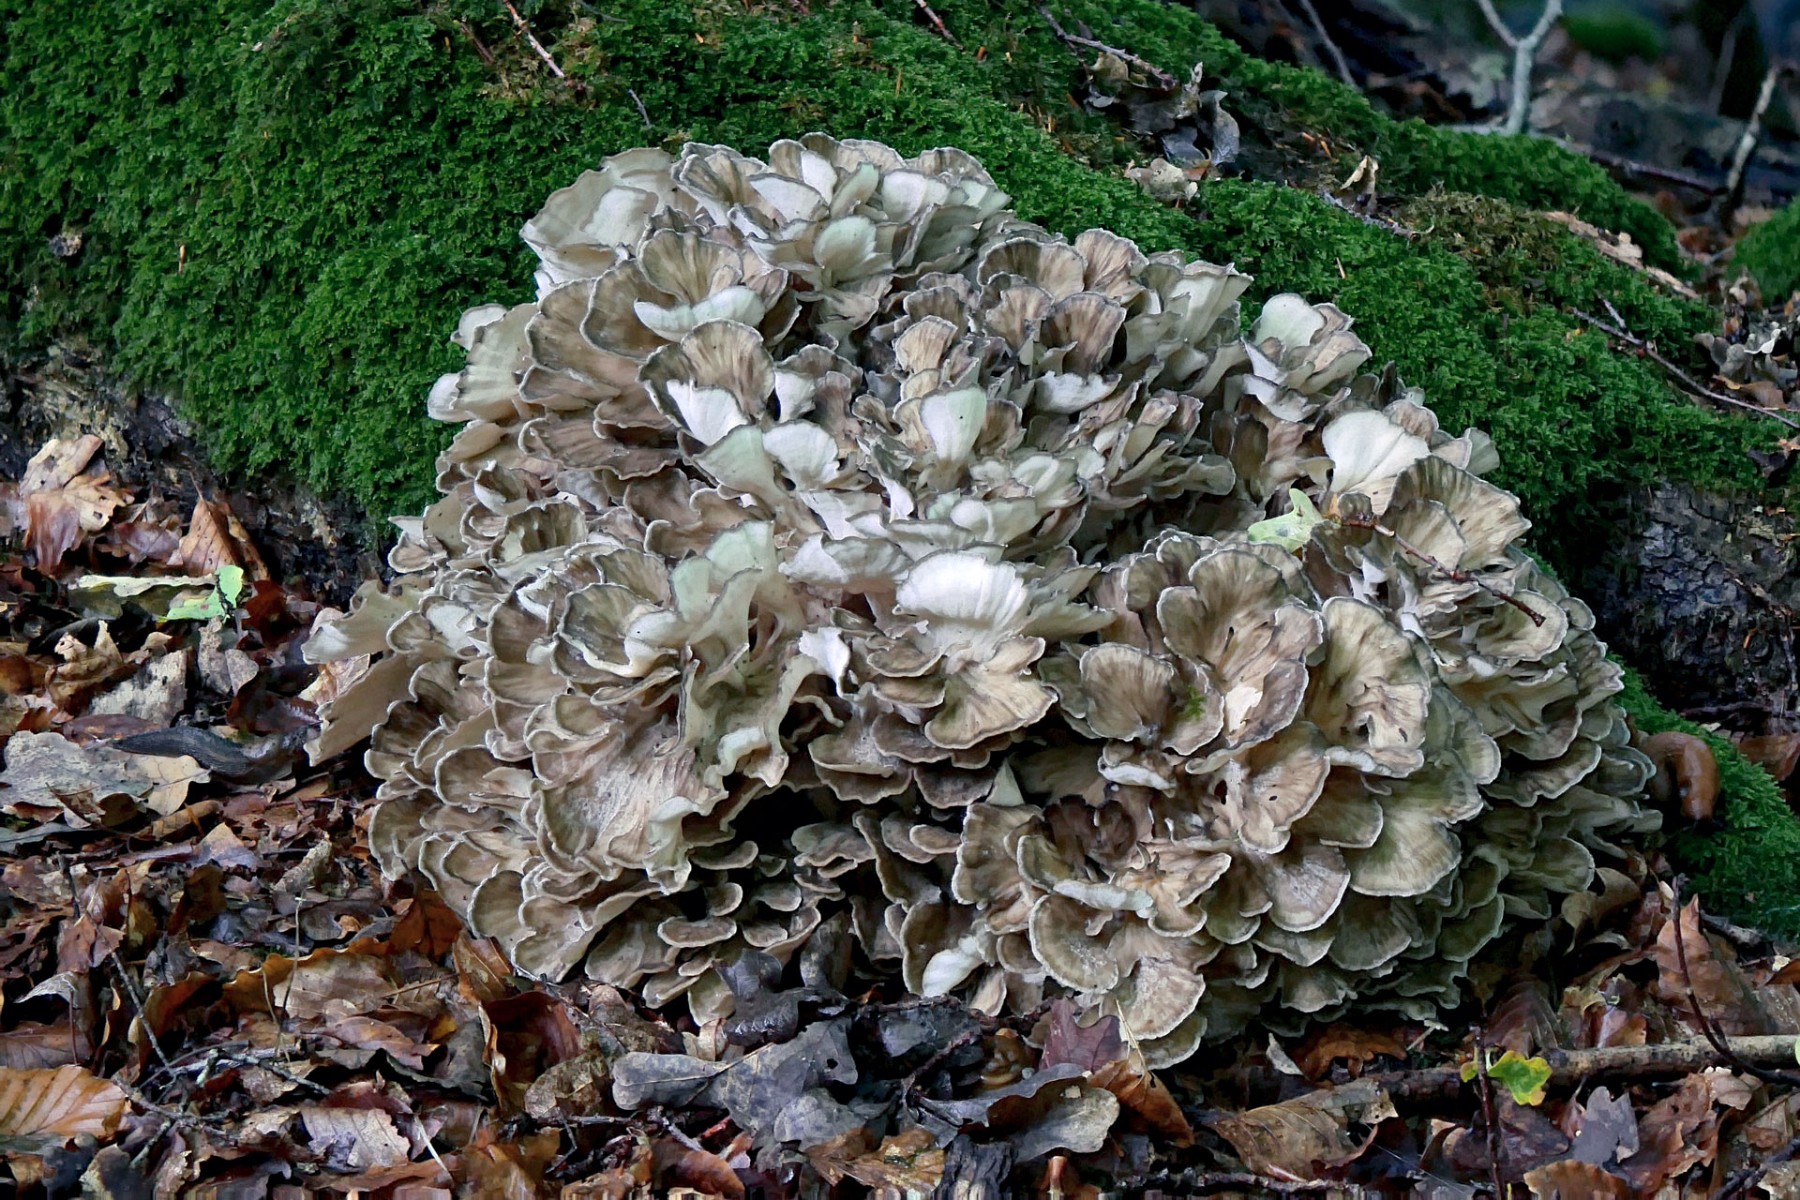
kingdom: Fungi
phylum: Basidiomycota
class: Agaricomycetes
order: Polyporales
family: Grifolaceae
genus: Grifola
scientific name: Grifola frondosa
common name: tueporesvamp
